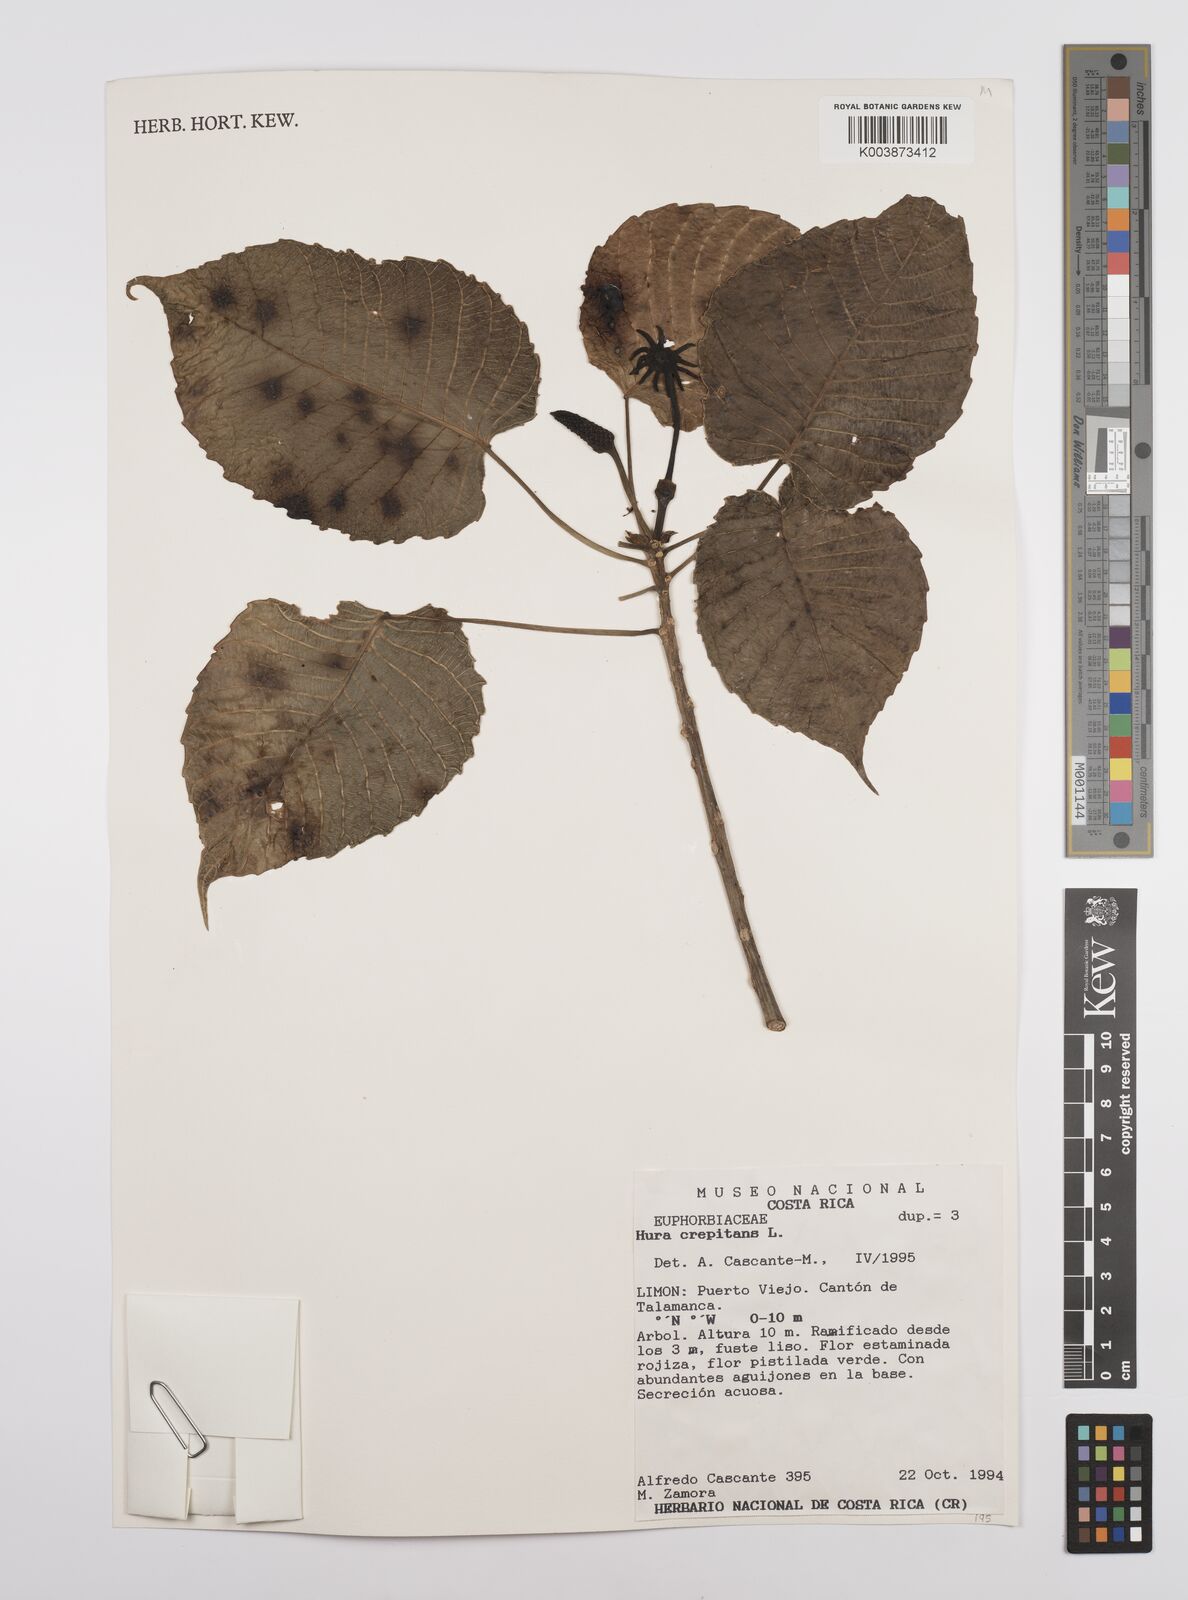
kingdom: Plantae
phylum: Tracheophyta
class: Magnoliopsida
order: Malpighiales
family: Euphorbiaceae
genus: Hura
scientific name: Hura crepitans
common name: Sandboxtree
